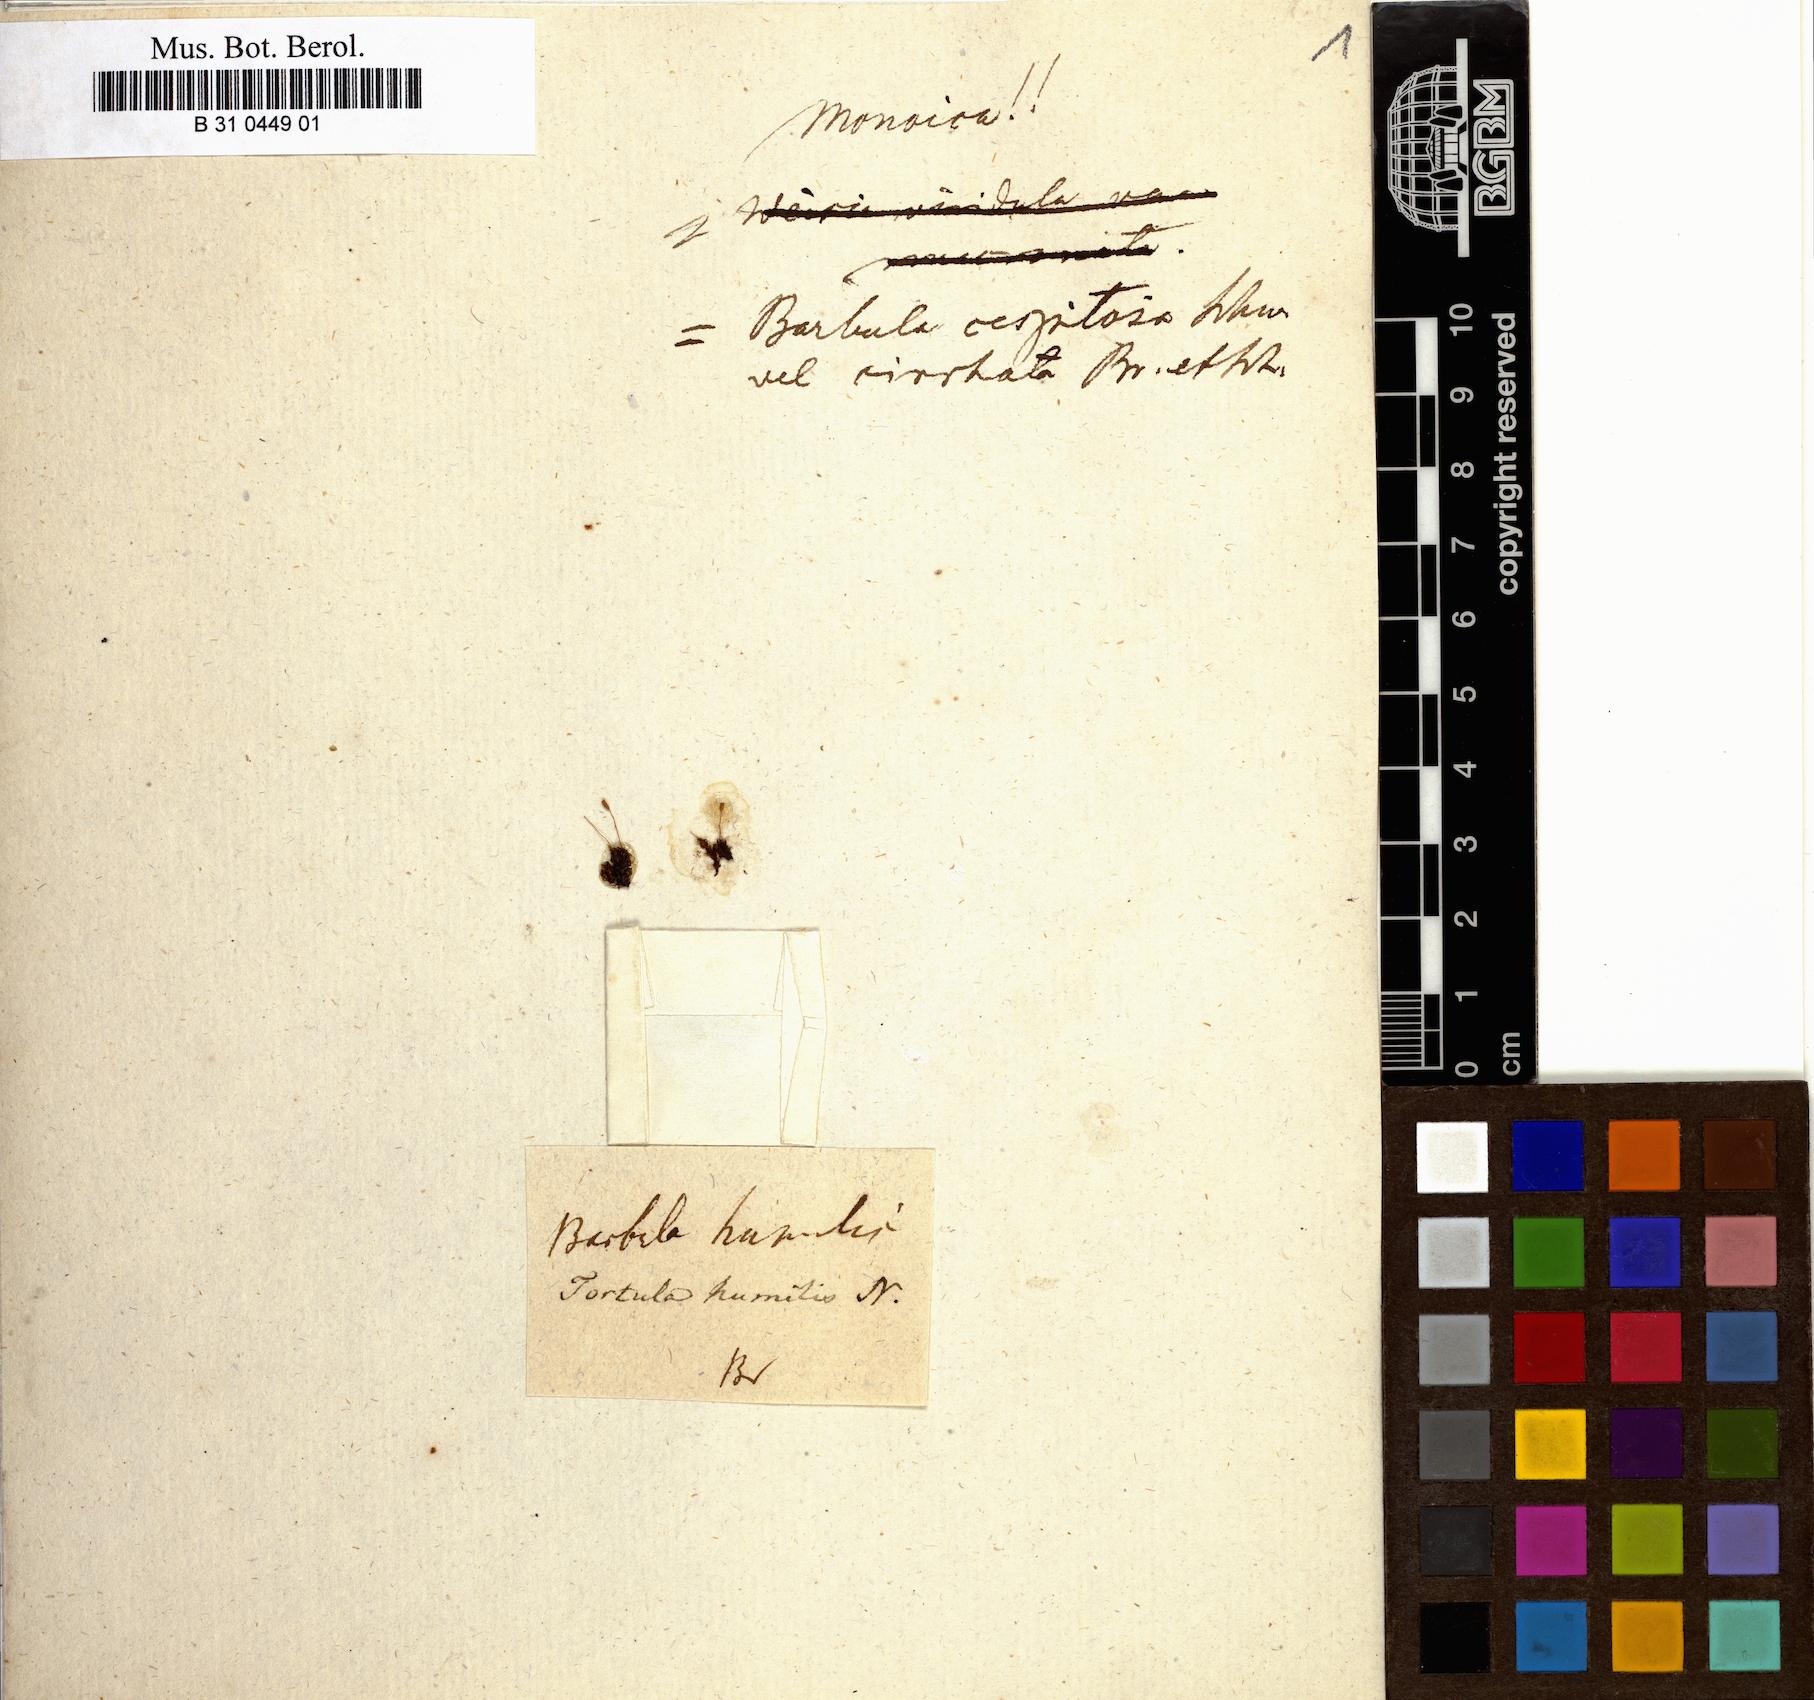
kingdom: Plantae
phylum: Bryophyta
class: Bryopsida
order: Pottiales
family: Pottiaceae
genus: Tortella
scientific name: Tortella humilis
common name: Small twisted moss
